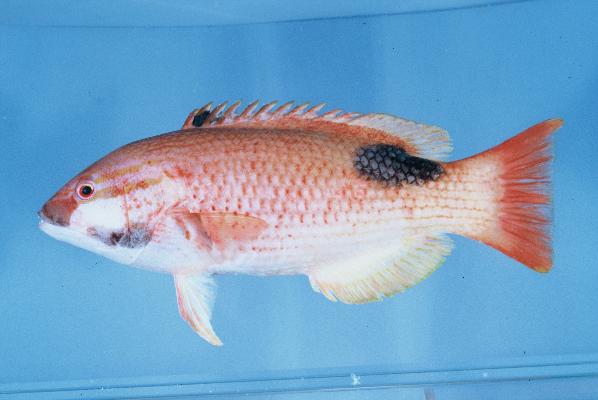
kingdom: Animalia
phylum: Chordata
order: Perciformes
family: Labridae
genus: Bodianus
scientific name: Bodianus bilunulatus
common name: Tarry hogfish
